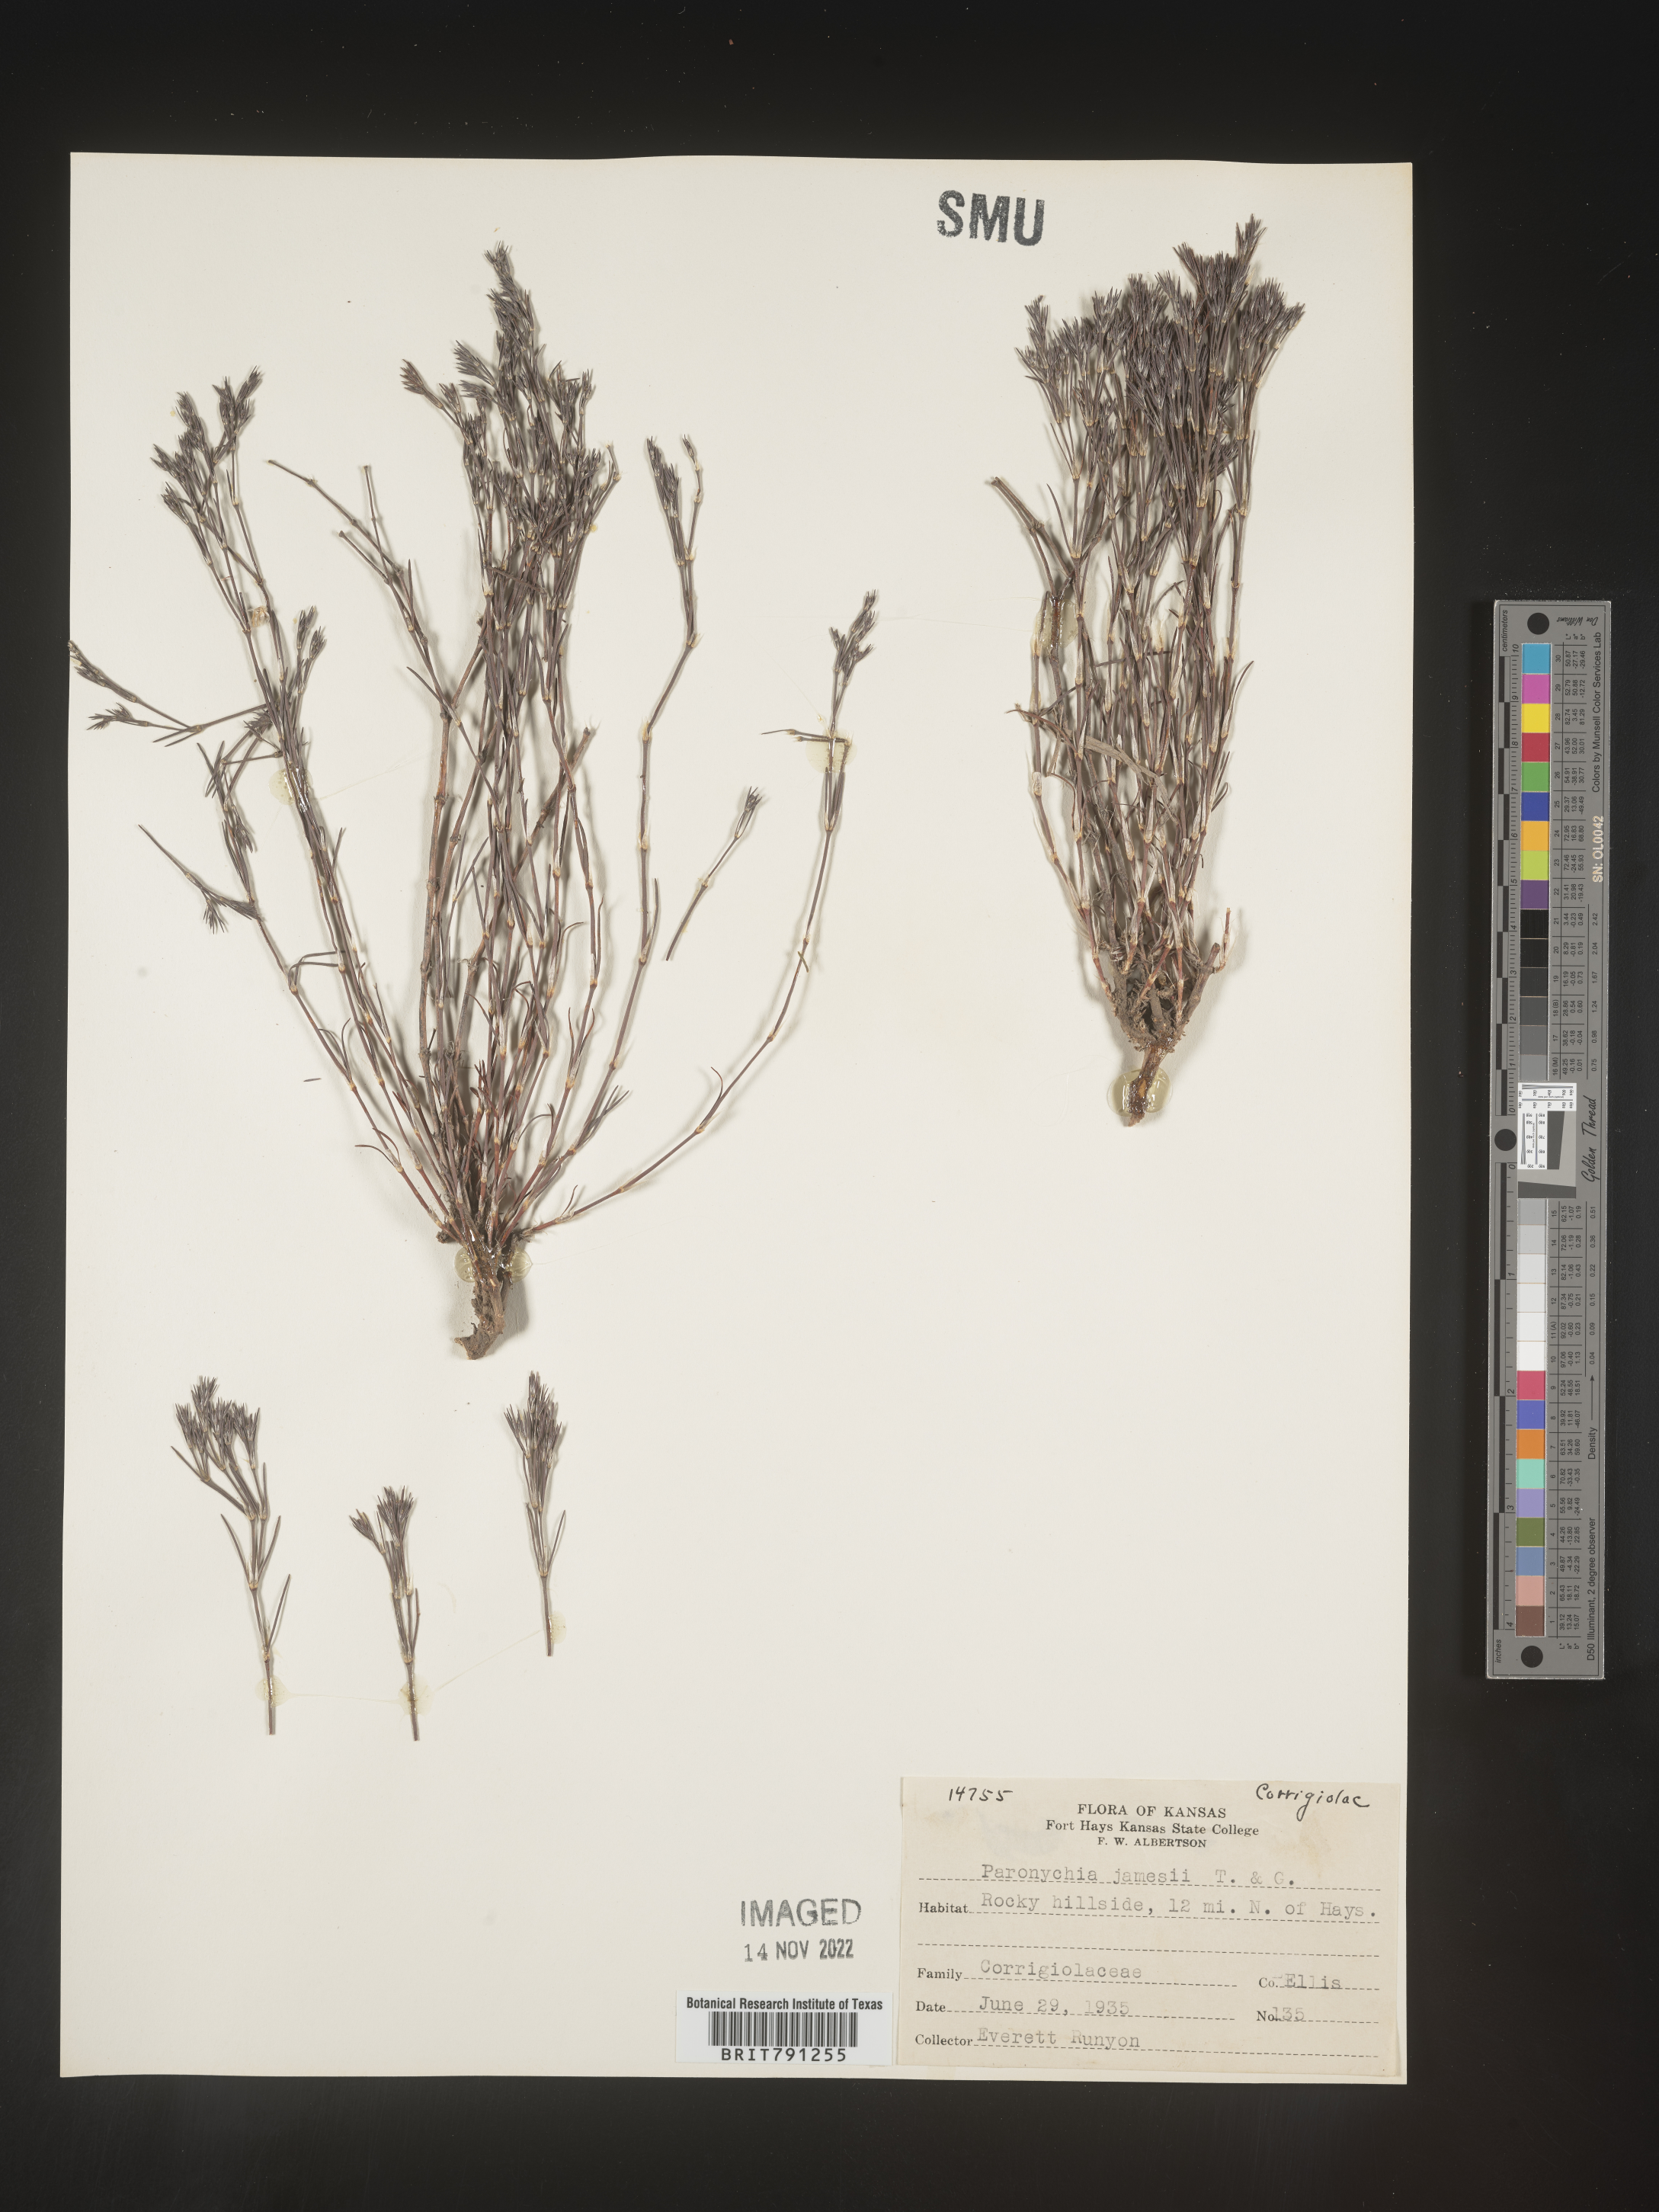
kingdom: Plantae
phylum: Tracheophyta
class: Magnoliopsida
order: Caryophyllales
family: Caryophyllaceae
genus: Paronychia
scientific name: Paronychia jamesii
